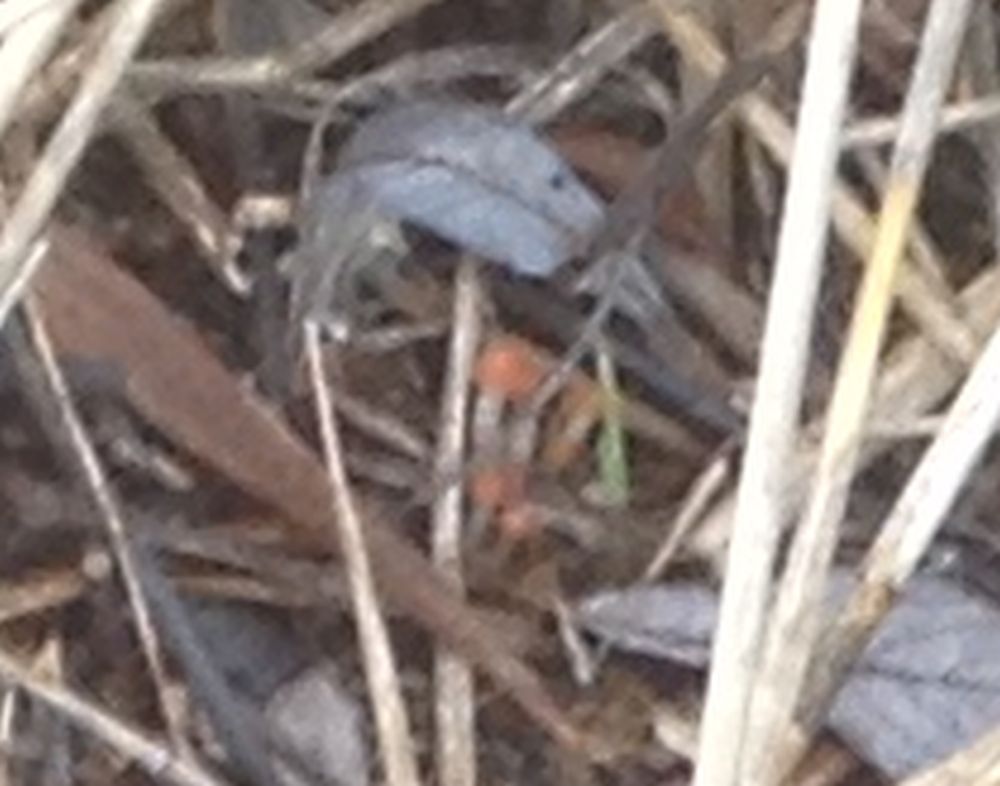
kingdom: Fungi
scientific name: Fungi
